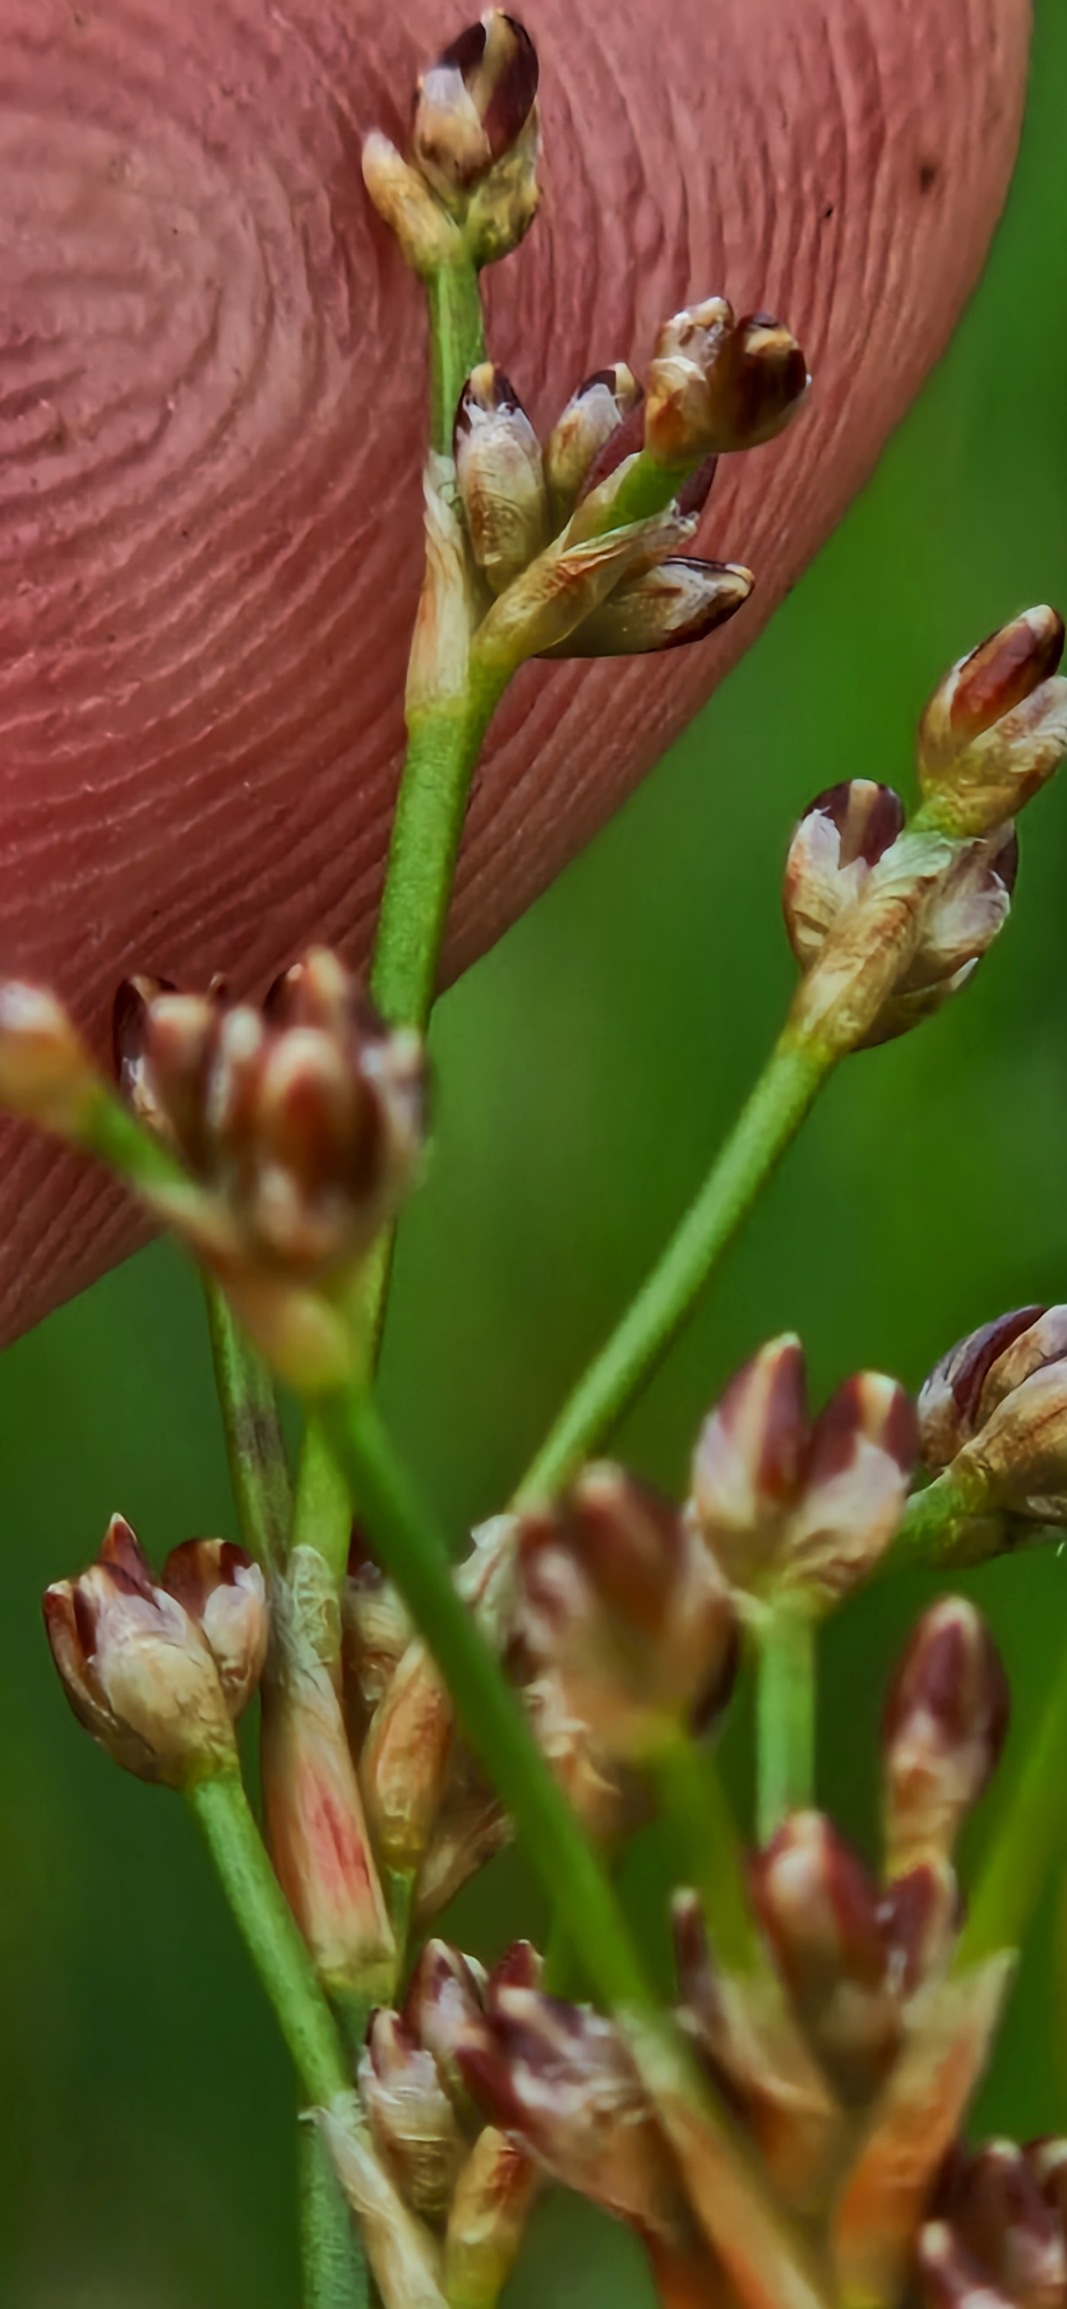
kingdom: Plantae
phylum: Tracheophyta
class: Liliopsida
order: Poales
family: Juncaceae
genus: Juncus
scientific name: Juncus subnodulosus
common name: Butblomstret siv
